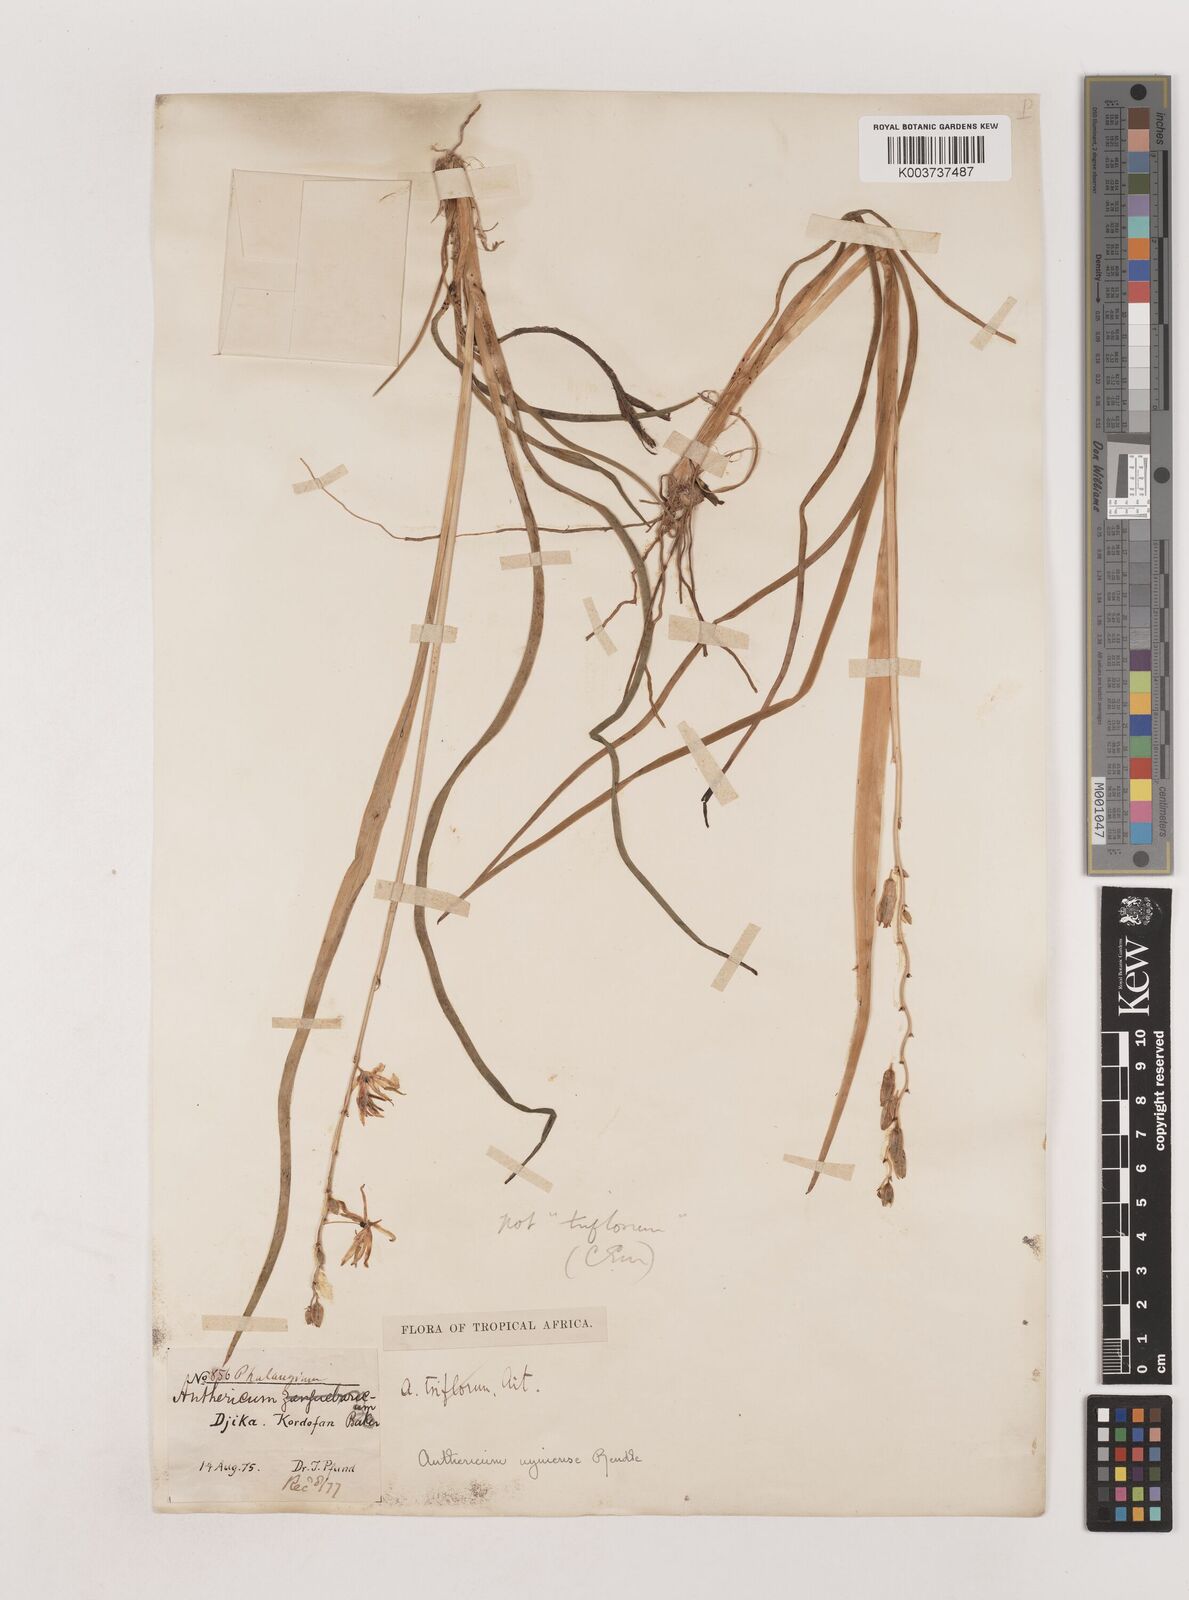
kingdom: Plantae
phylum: Tracheophyta
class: Liliopsida
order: Asparagales
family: Asparagaceae
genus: Chlorophytum
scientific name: Chlorophytum cameronii
